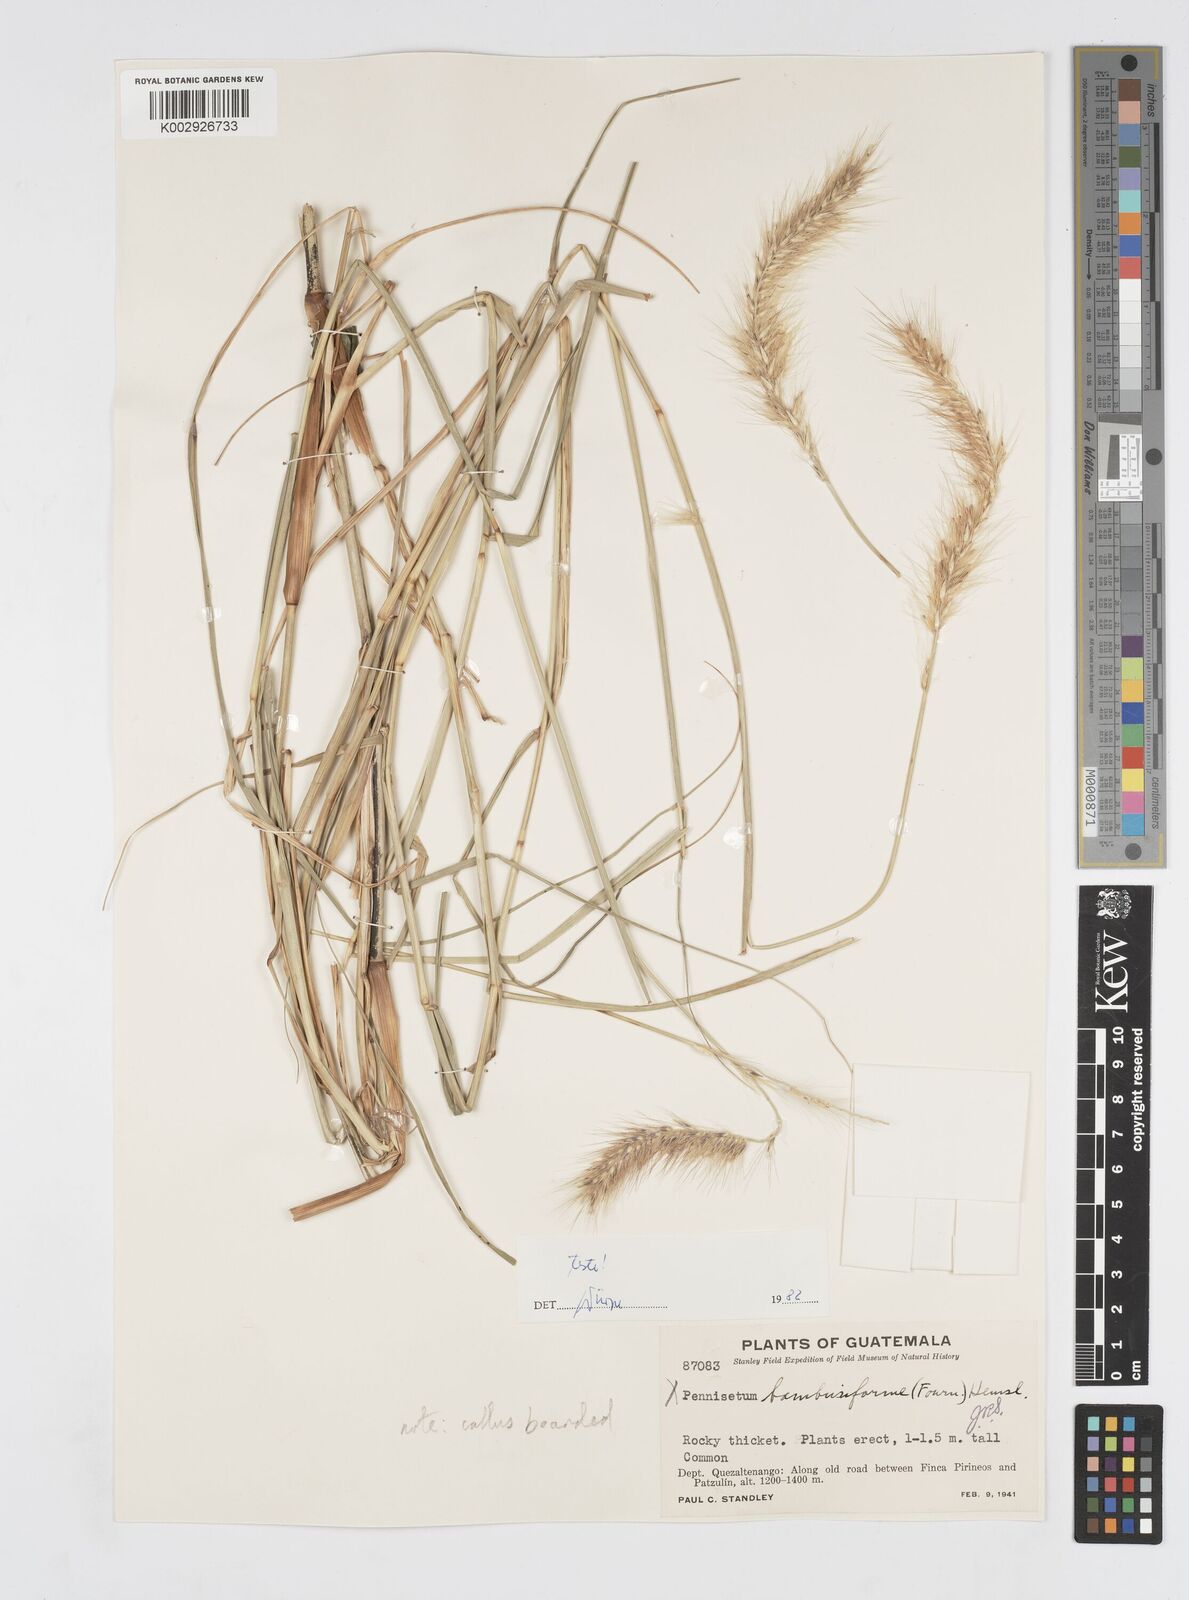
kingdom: Plantae
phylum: Tracheophyta
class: Liliopsida
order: Poales
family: Poaceae
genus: Cenchrus
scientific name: Cenchrus complanatus
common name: Nicaraguan fountaingrass
